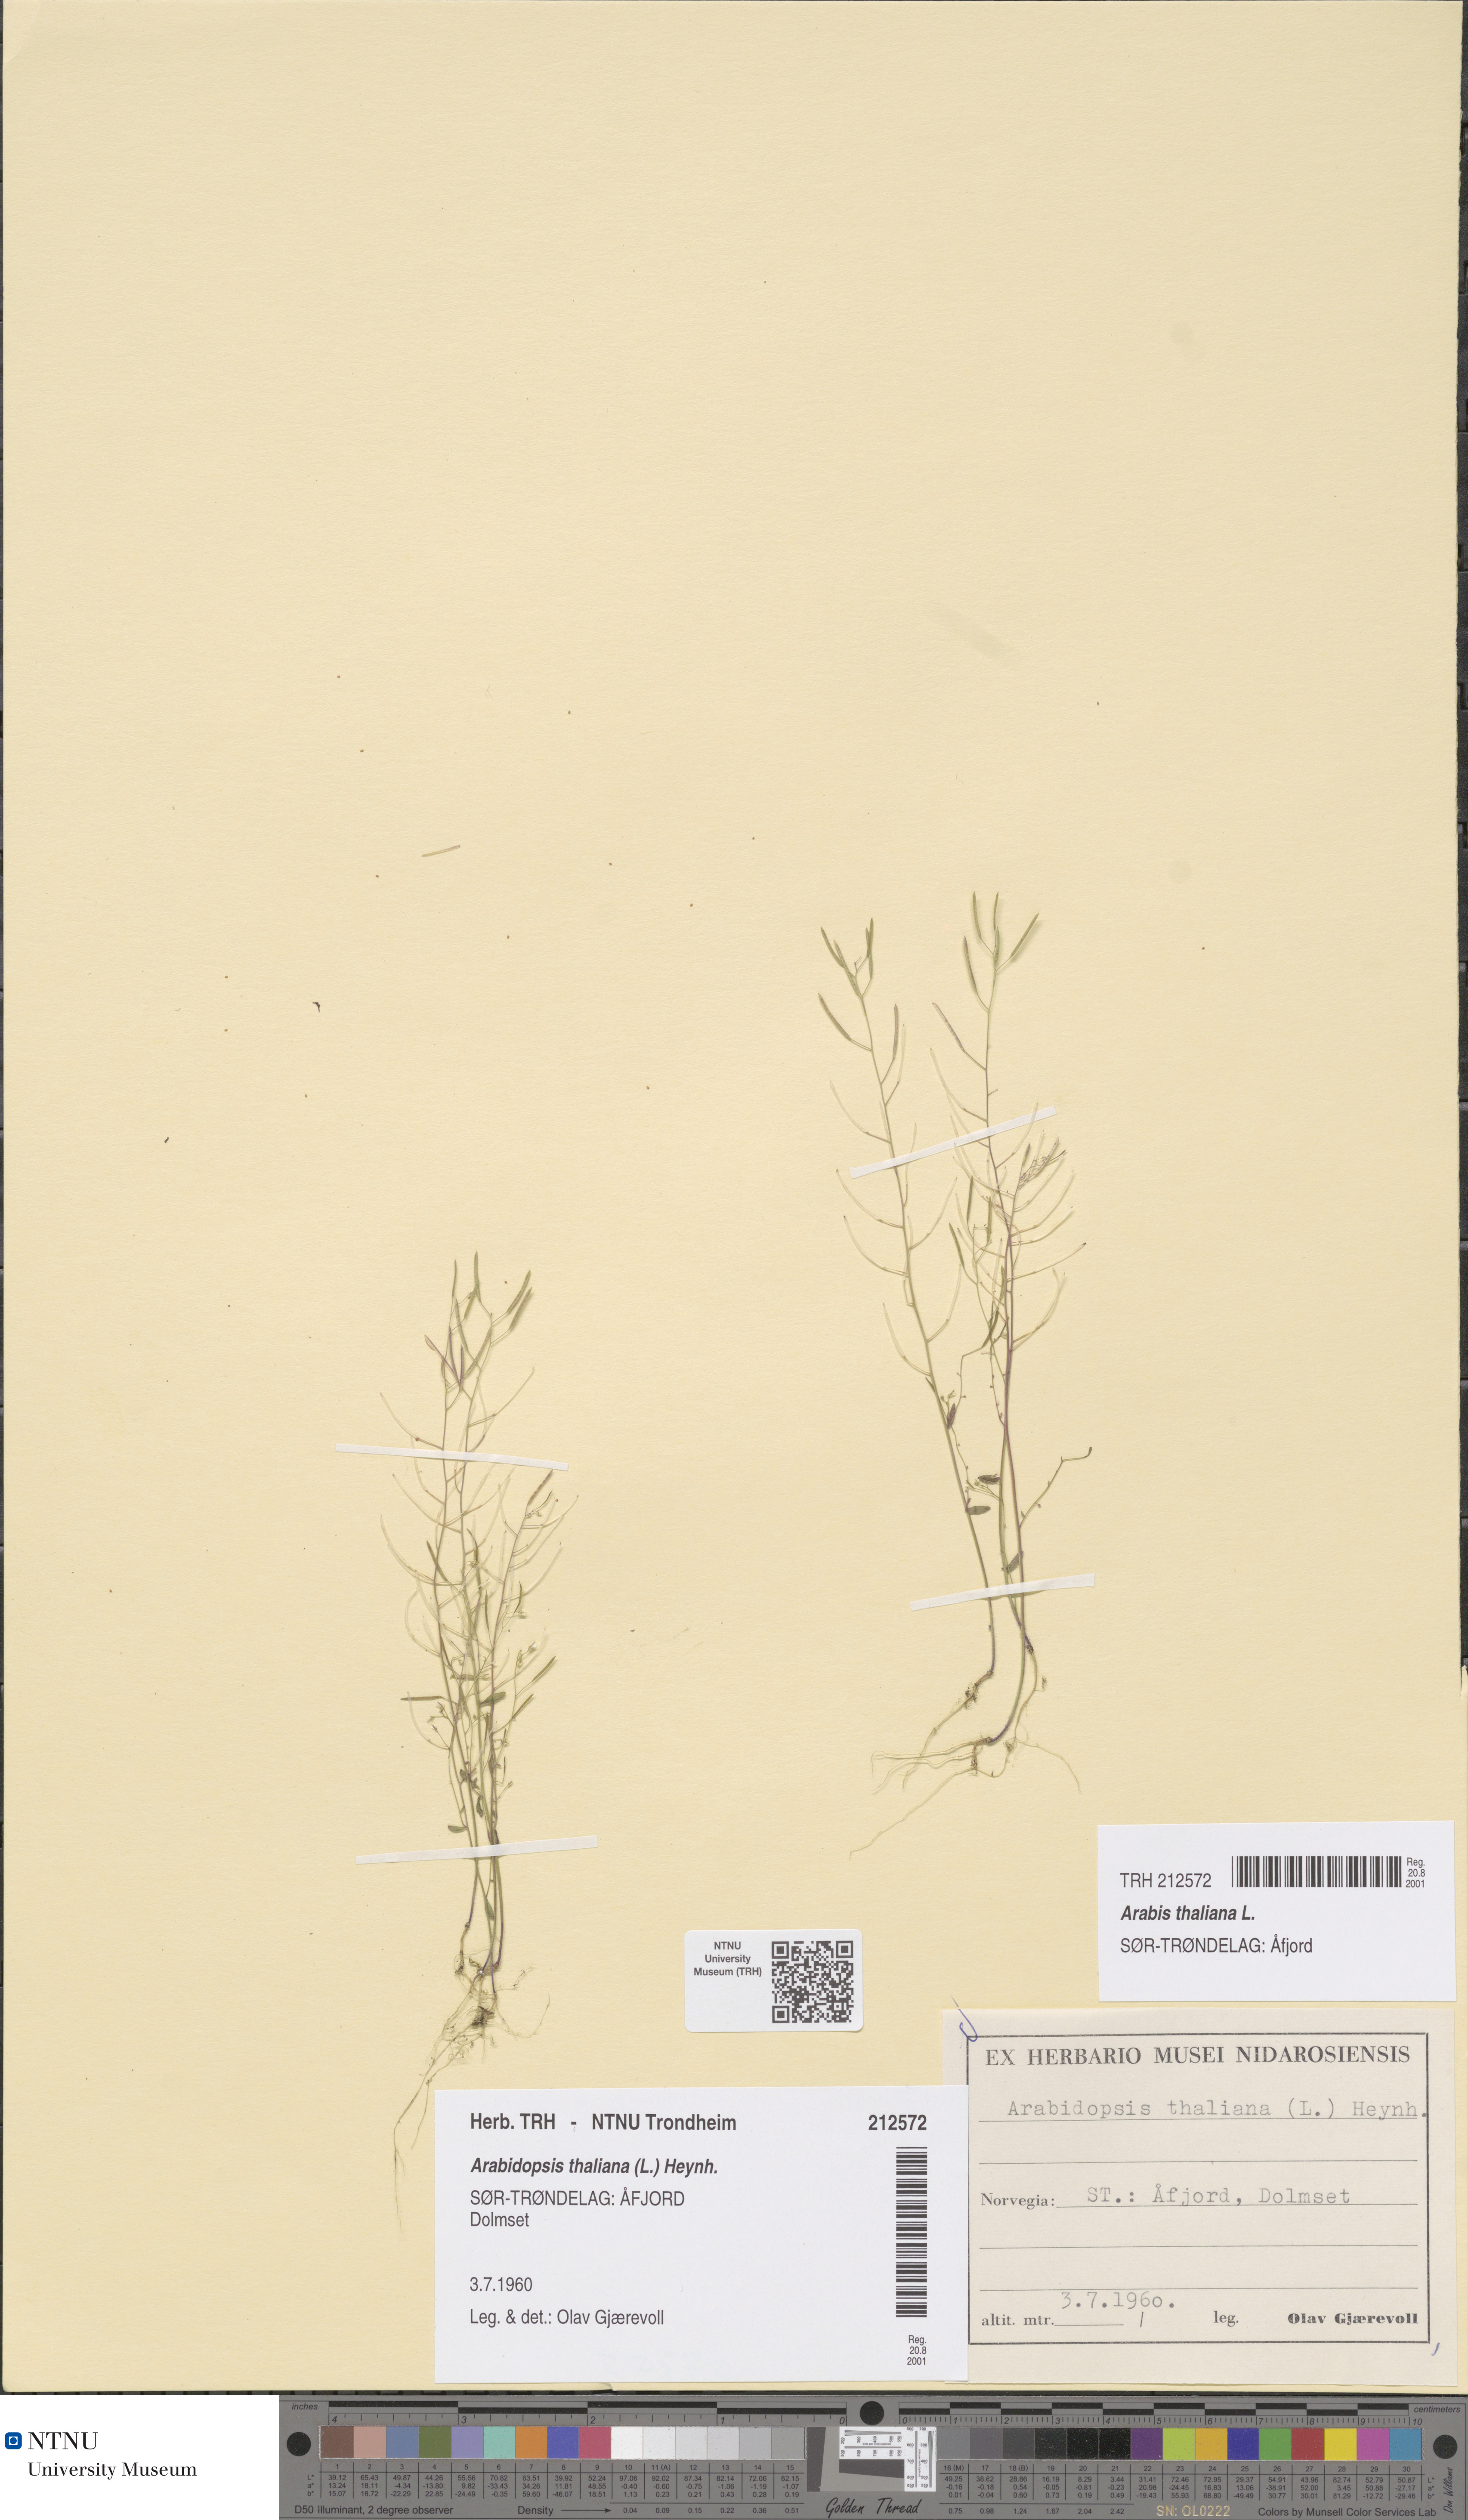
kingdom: Plantae
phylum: Tracheophyta
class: Magnoliopsida
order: Brassicales
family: Brassicaceae
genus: Arabidopsis
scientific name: Arabidopsis thaliana
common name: Thale cress
